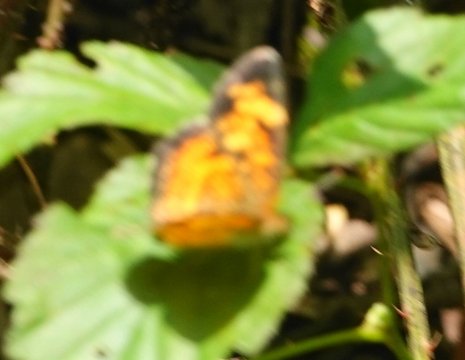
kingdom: Animalia
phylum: Arthropoda
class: Insecta
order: Lepidoptera
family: Nymphalidae
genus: Phyciodes
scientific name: Phyciodes tharos
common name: Pearl Crescent
